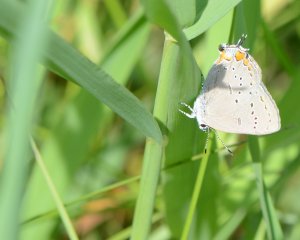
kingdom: Animalia
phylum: Arthropoda
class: Insecta
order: Lepidoptera
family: Lycaenidae
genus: Strymon
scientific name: Strymon acadica
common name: Acadian Hairstreak
